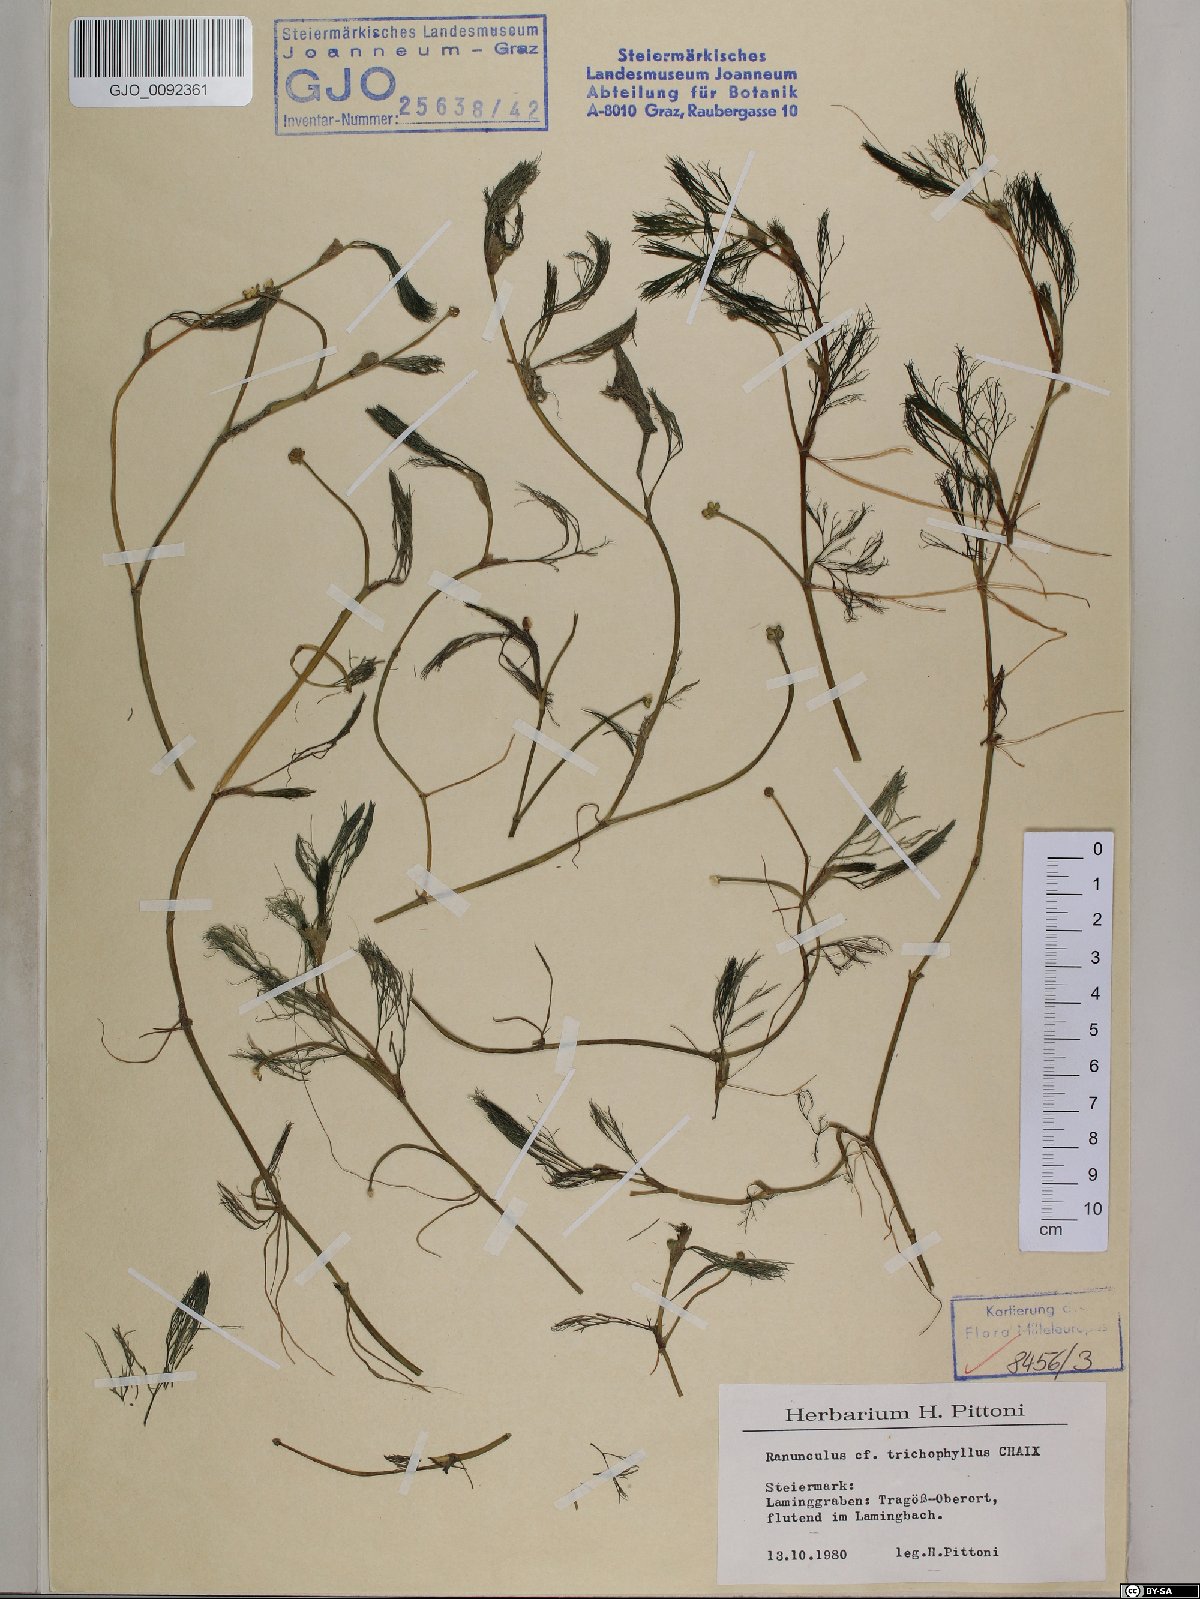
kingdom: Plantae
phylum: Tracheophyta
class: Magnoliopsida
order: Ranunculales
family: Ranunculaceae
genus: Ranunculus
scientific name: Ranunculus trichophyllus
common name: Thread-leaved water-crowfoot
